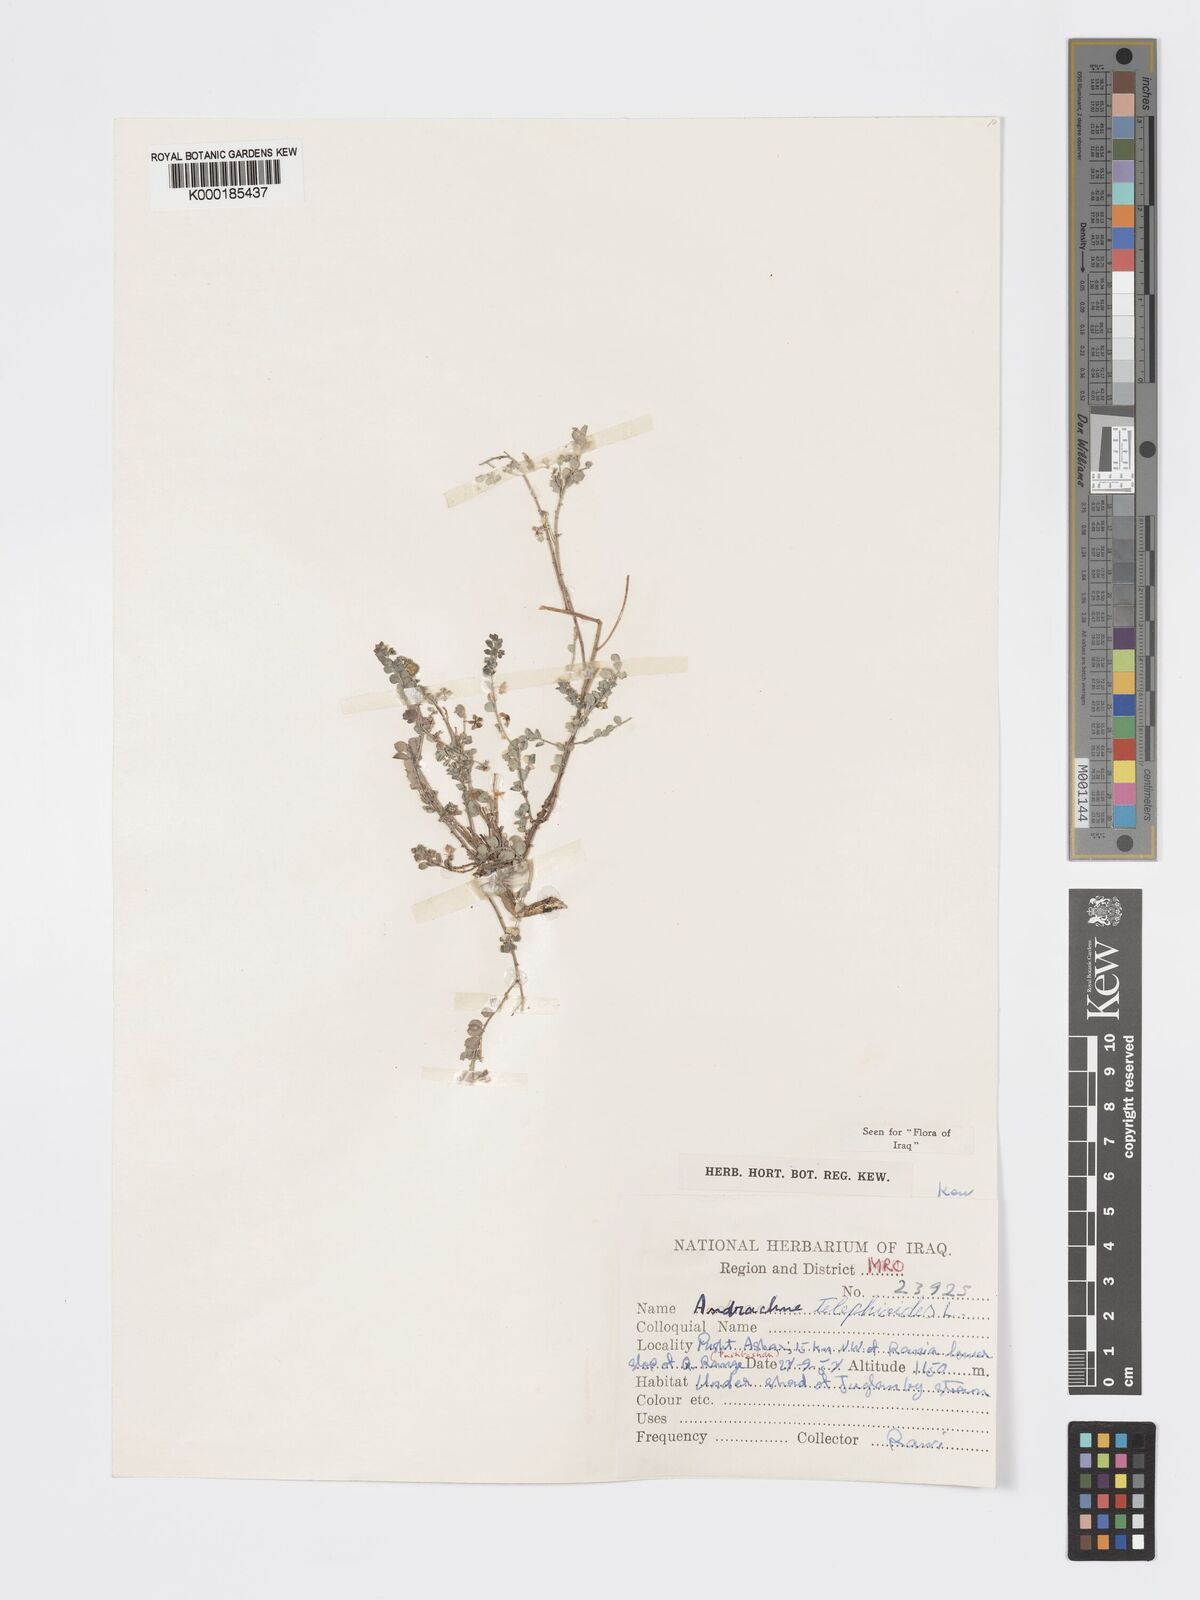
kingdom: Plantae
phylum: Tracheophyta
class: Magnoliopsida
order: Malpighiales
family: Phyllanthaceae
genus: Andrachne
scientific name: Andrachne telephioides
